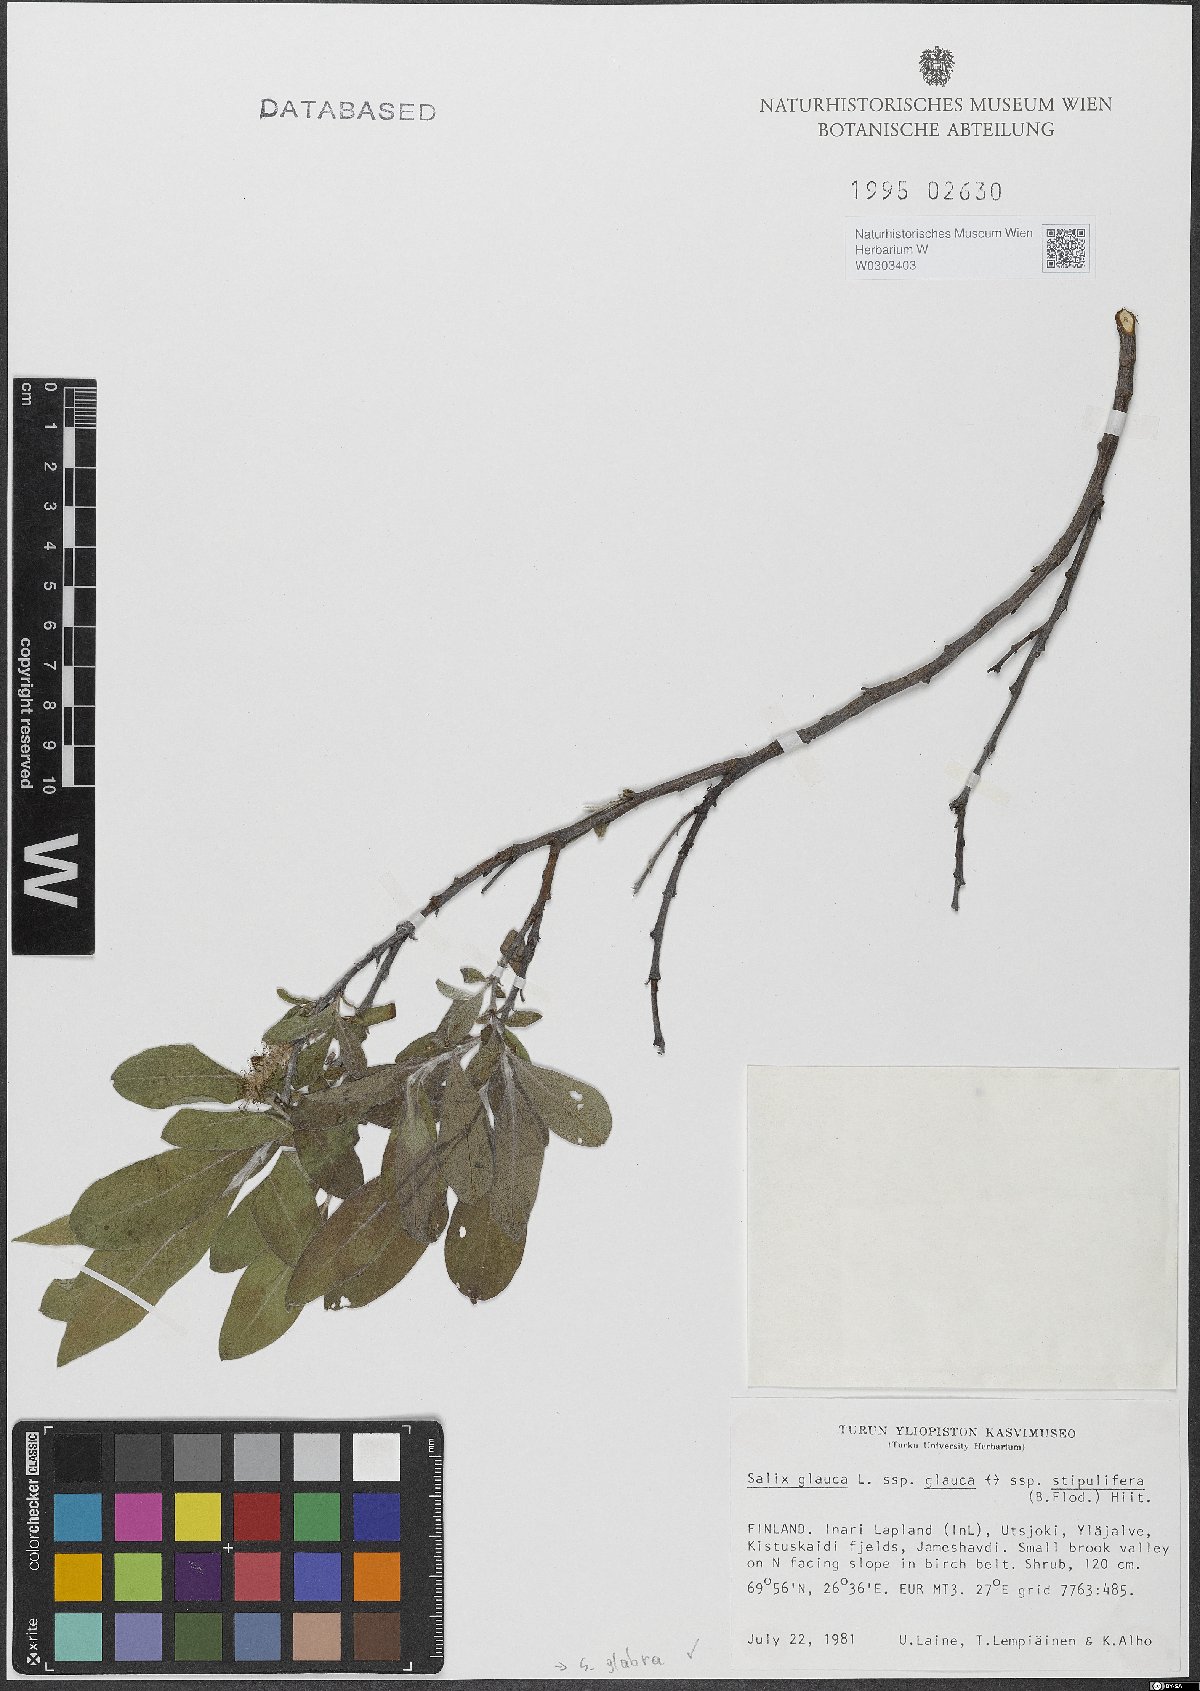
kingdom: Plantae
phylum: Tracheophyta
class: Magnoliopsida
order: Malpighiales
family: Salicaceae
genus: Salix
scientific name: Salix glabra
